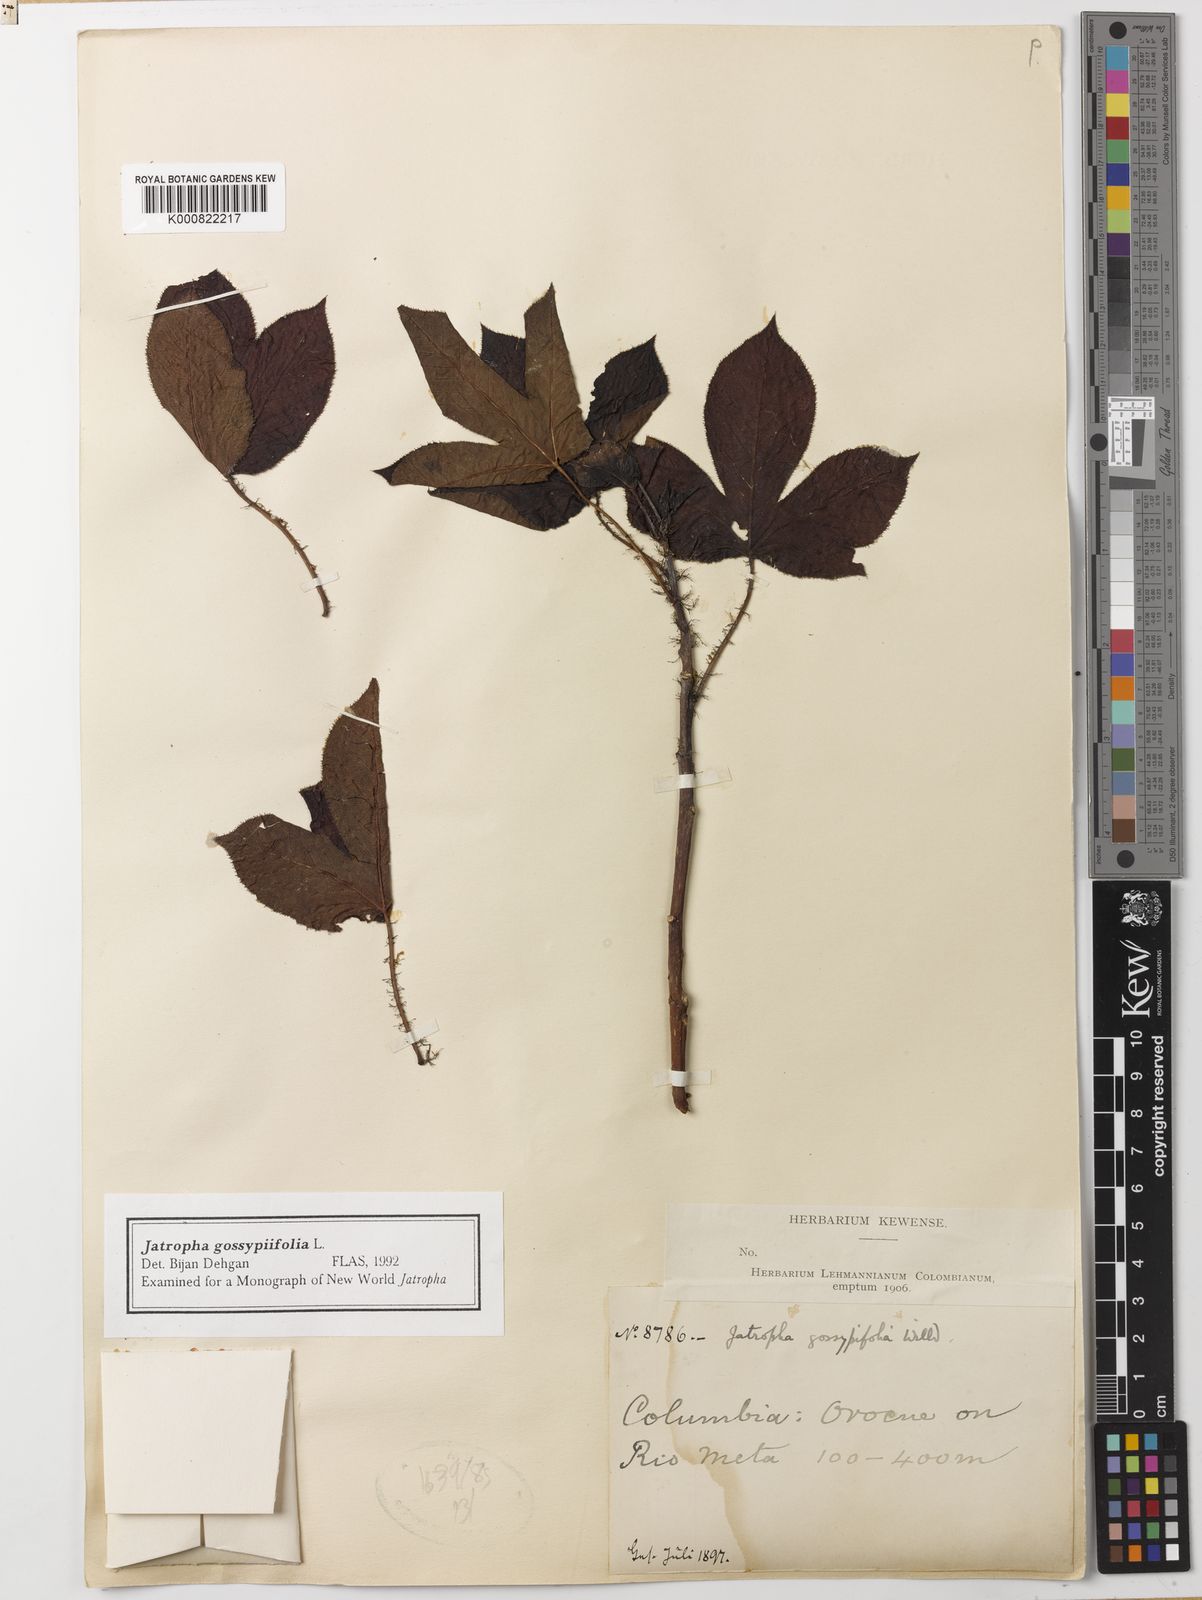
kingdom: Plantae
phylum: Tracheophyta
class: Magnoliopsida
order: Malpighiales
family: Euphorbiaceae
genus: Jatropha
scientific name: Jatropha gossypiifolia
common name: Bellyache bush
